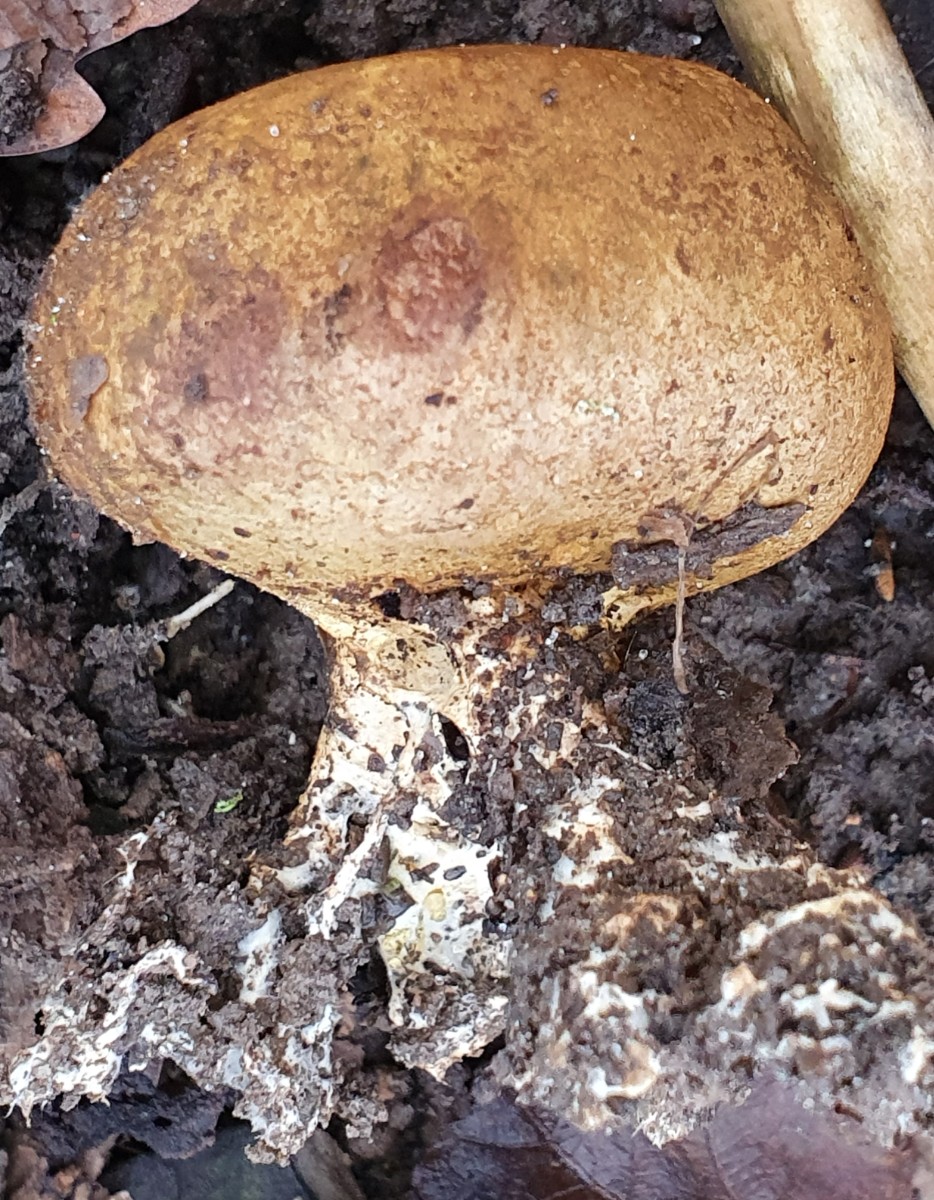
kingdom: Fungi
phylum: Basidiomycota
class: Agaricomycetes
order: Boletales
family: Sclerodermataceae
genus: Scleroderma
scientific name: Scleroderma verrucosum
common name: stilket bruskbold
